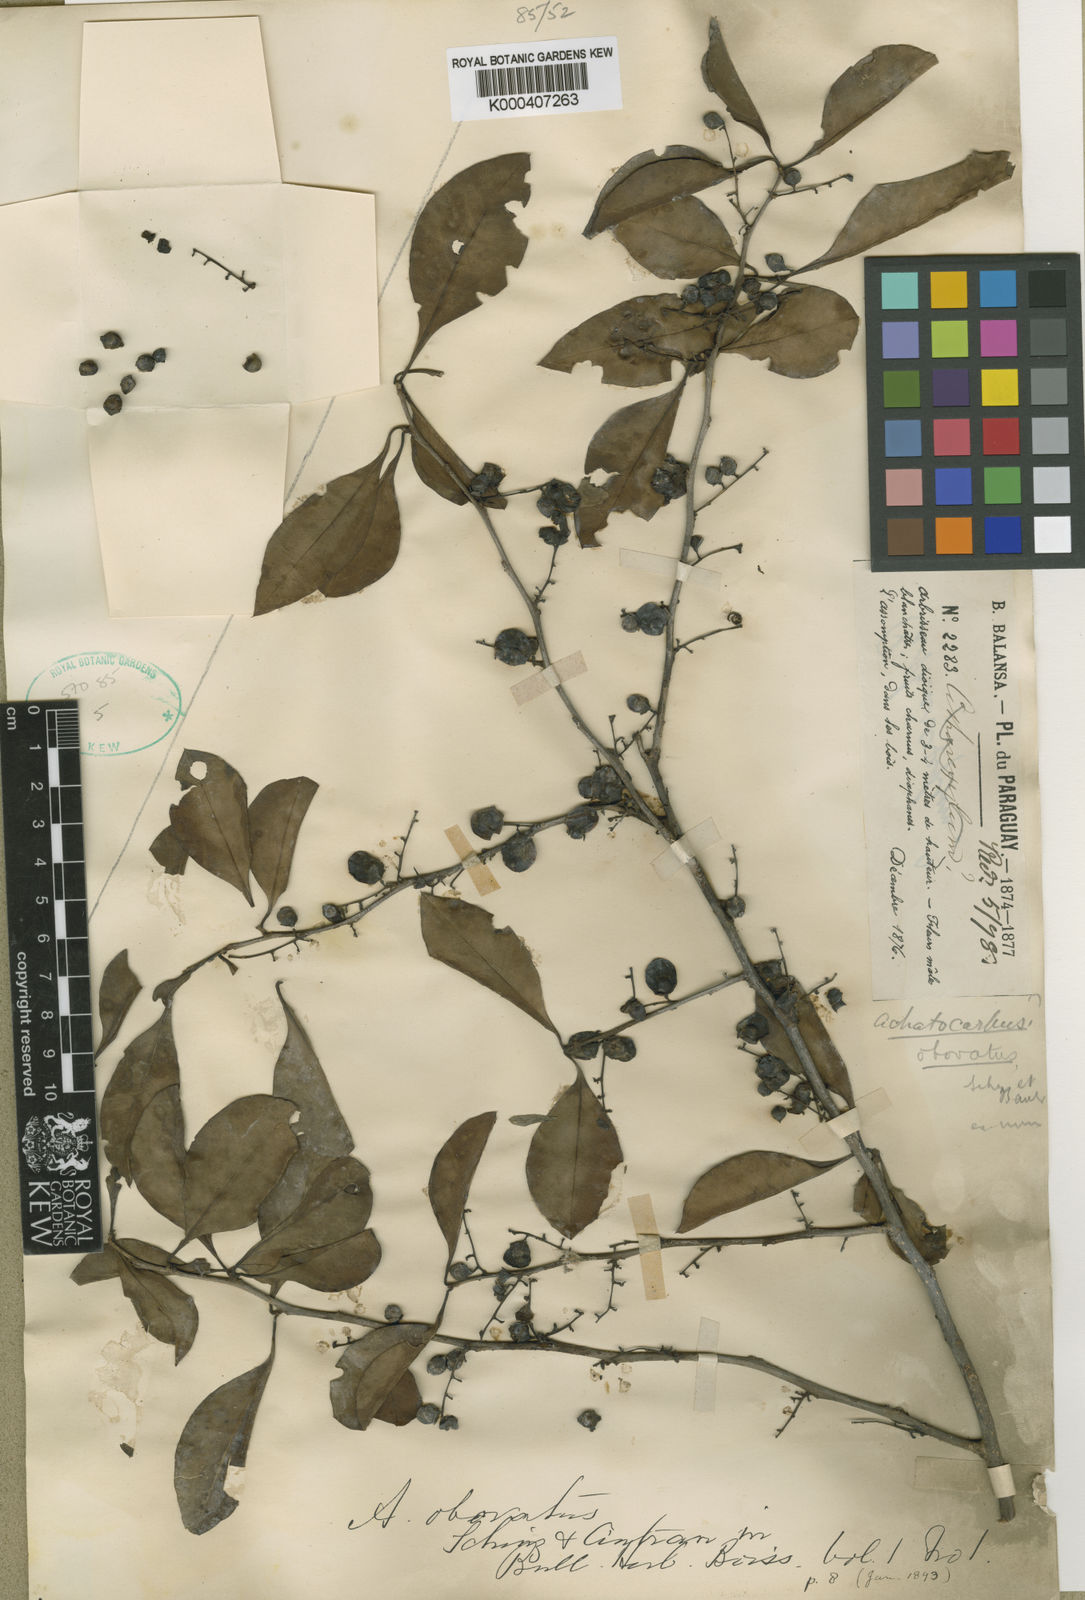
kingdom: Plantae
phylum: Tracheophyta
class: Magnoliopsida
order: Caryophyllales
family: Achatocarpaceae
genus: Achatocarpus
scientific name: Achatocarpus praecox
